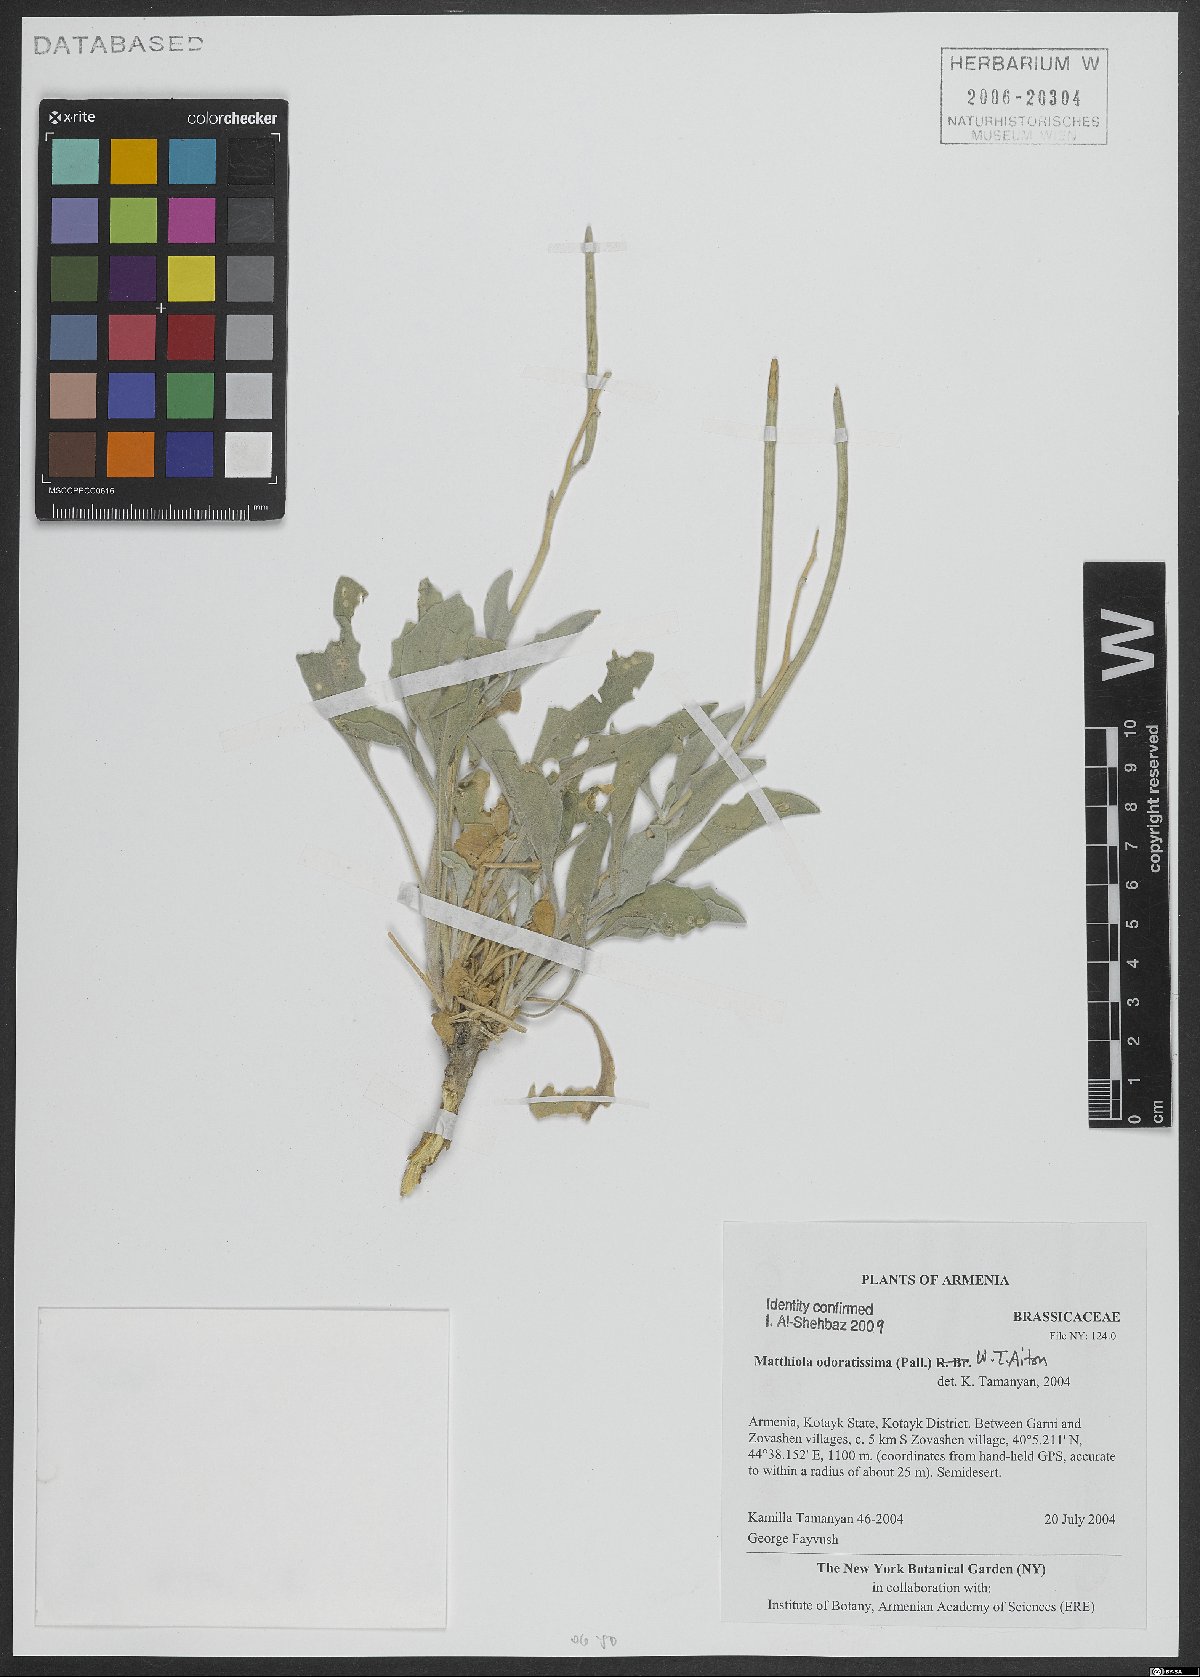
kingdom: Plantae
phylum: Tracheophyta
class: Magnoliopsida
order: Brassicales
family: Brassicaceae
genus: Matthiola
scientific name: Matthiola spathulata
